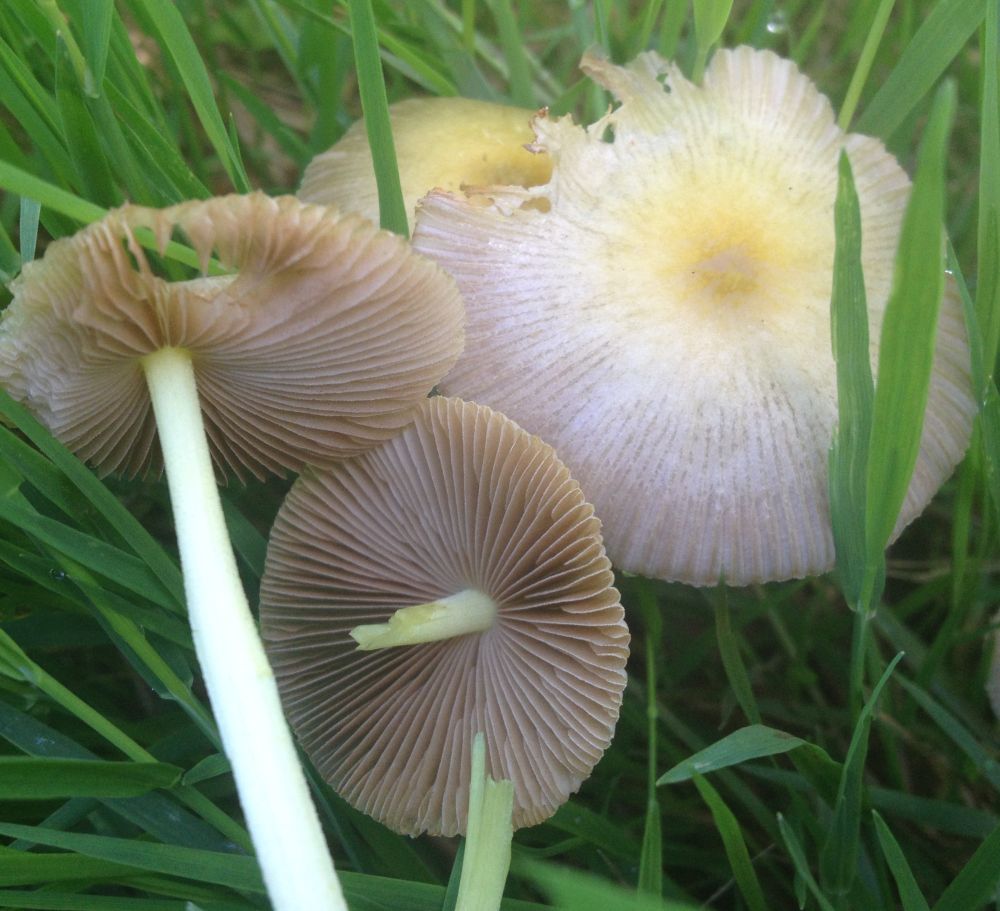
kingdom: Fungi
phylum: Basidiomycota
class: Agaricomycetes
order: Agaricales
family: Bolbitiaceae
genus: Bolbitius
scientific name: Bolbitius titubans
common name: almindelig gulhat
